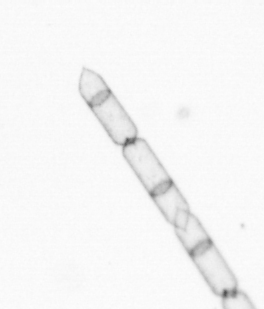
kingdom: Chromista
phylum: Ochrophyta
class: Bacillariophyceae
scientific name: Bacillariophyceae
